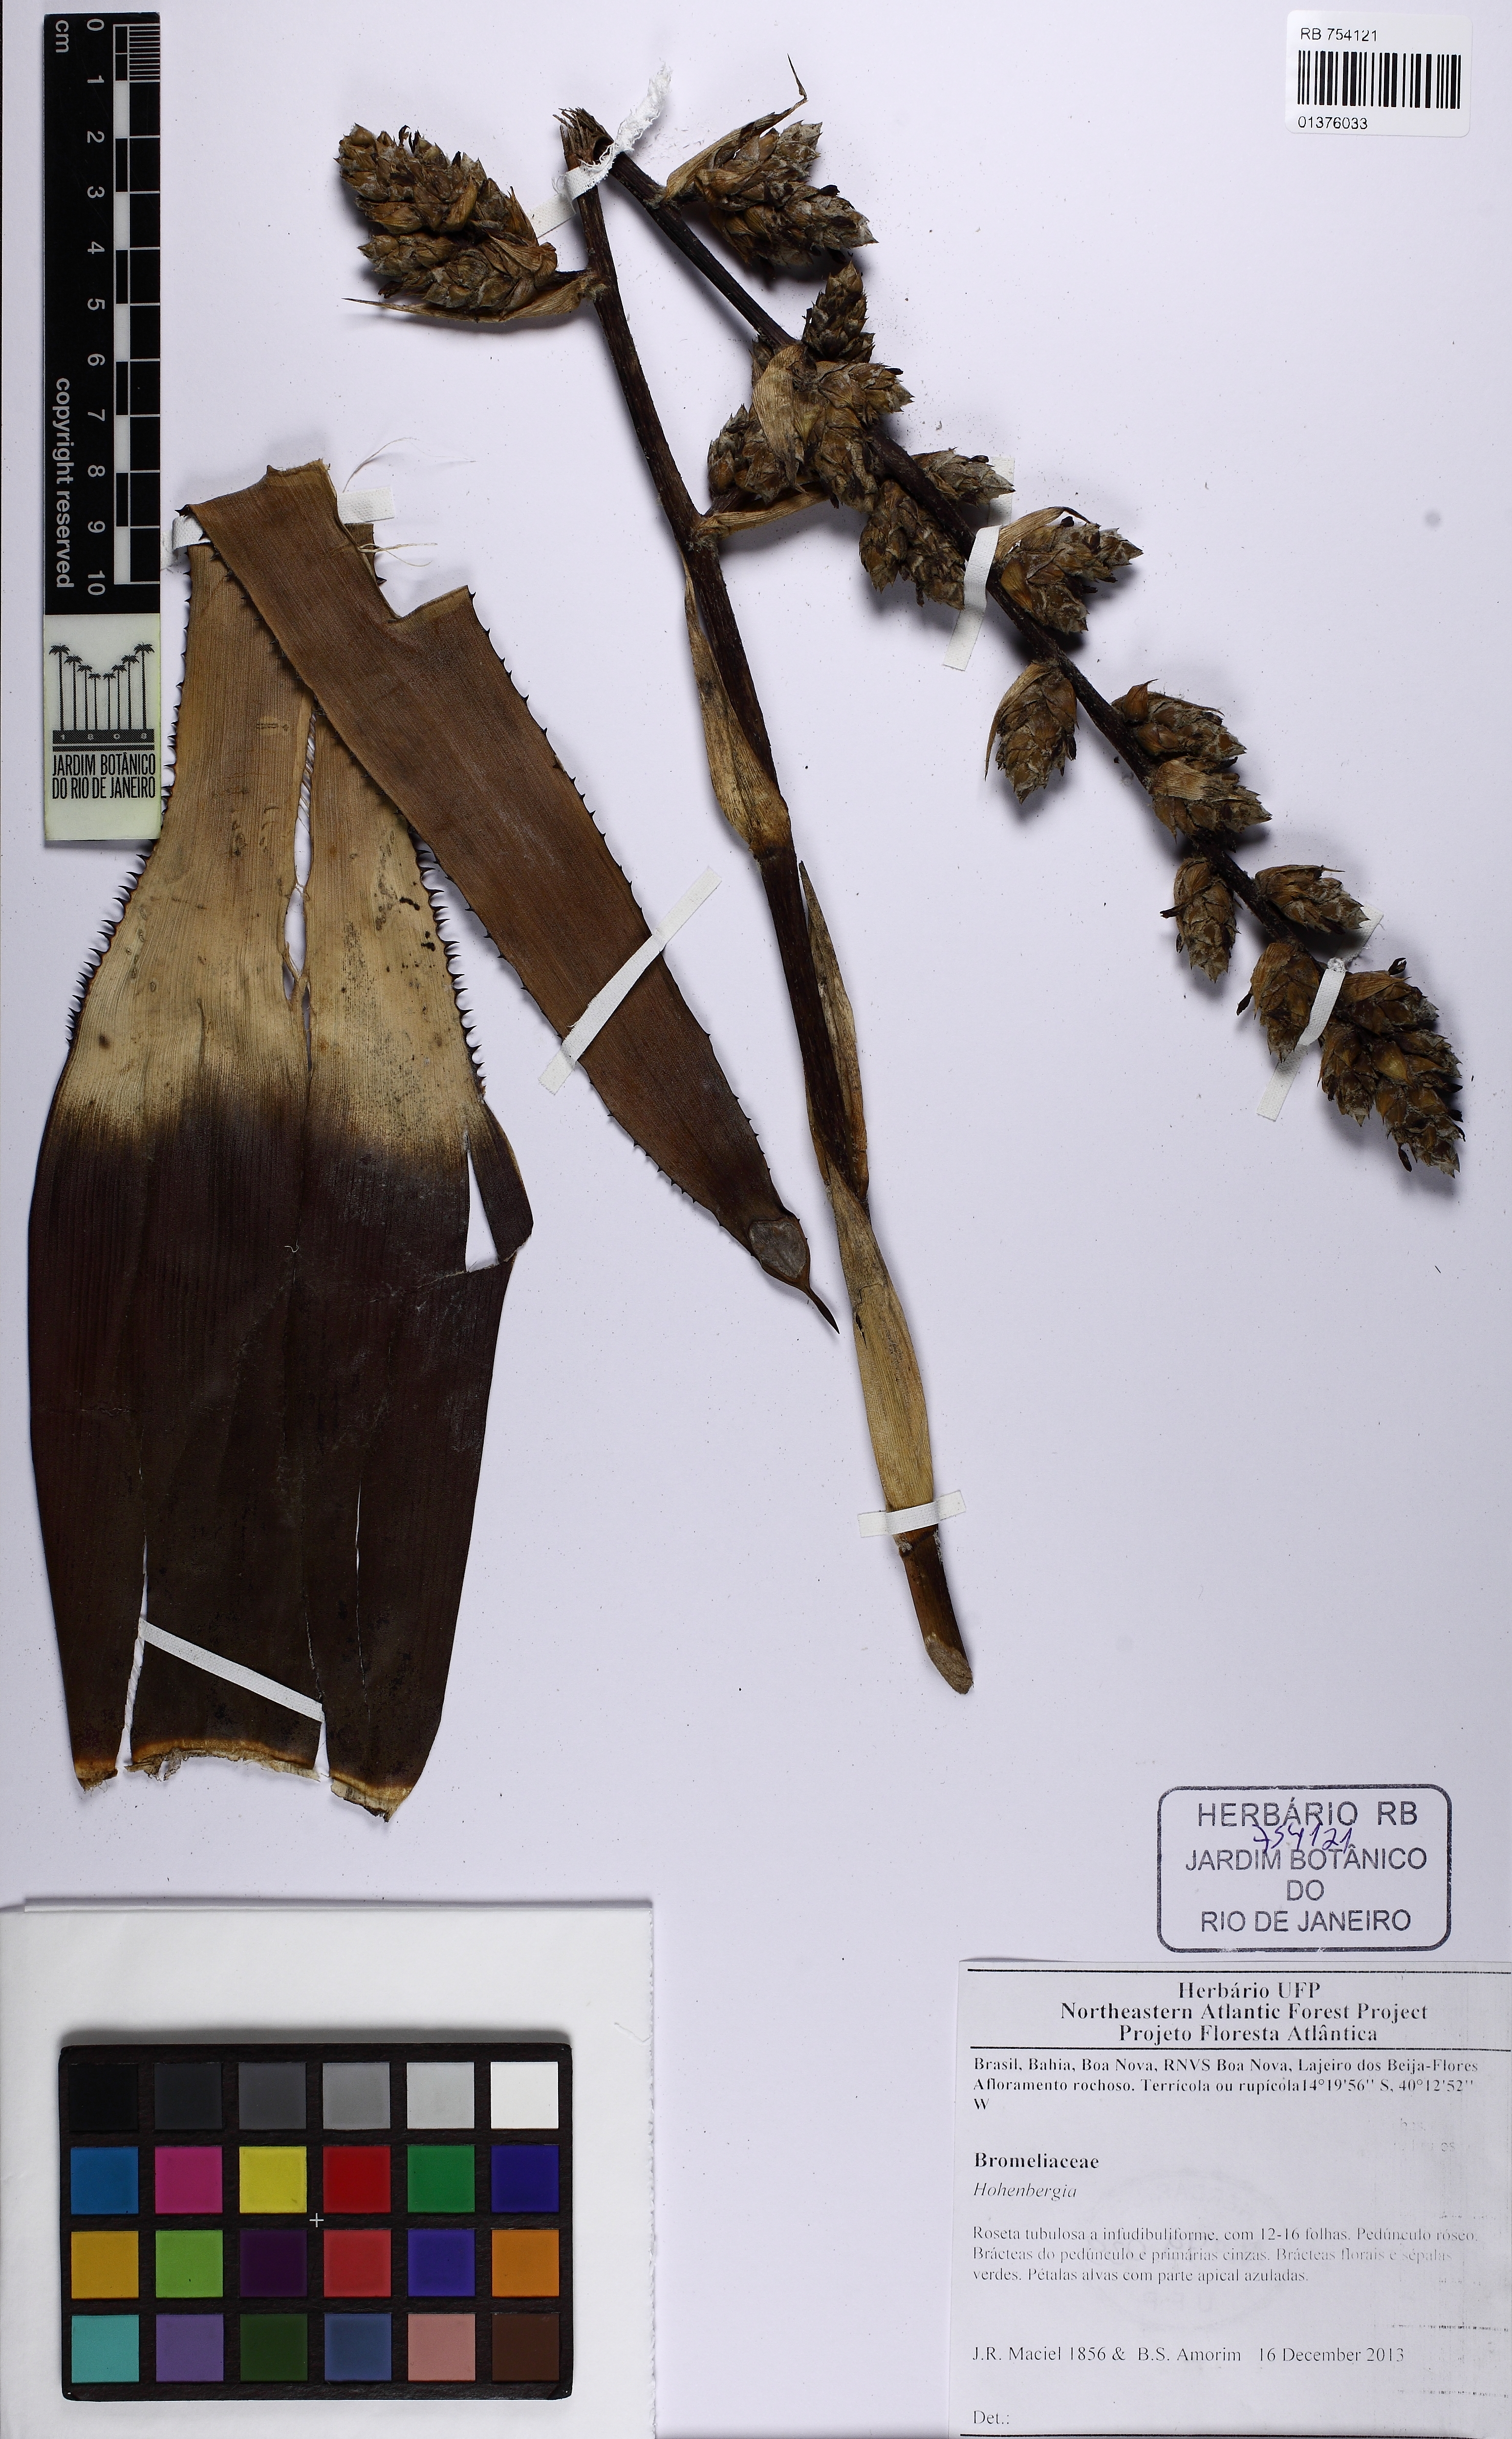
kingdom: Plantae
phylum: Tracheophyta
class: Liliopsida
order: Poales
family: Bromeliaceae
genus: Hohenbergia
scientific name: Hohenbergia catingae
